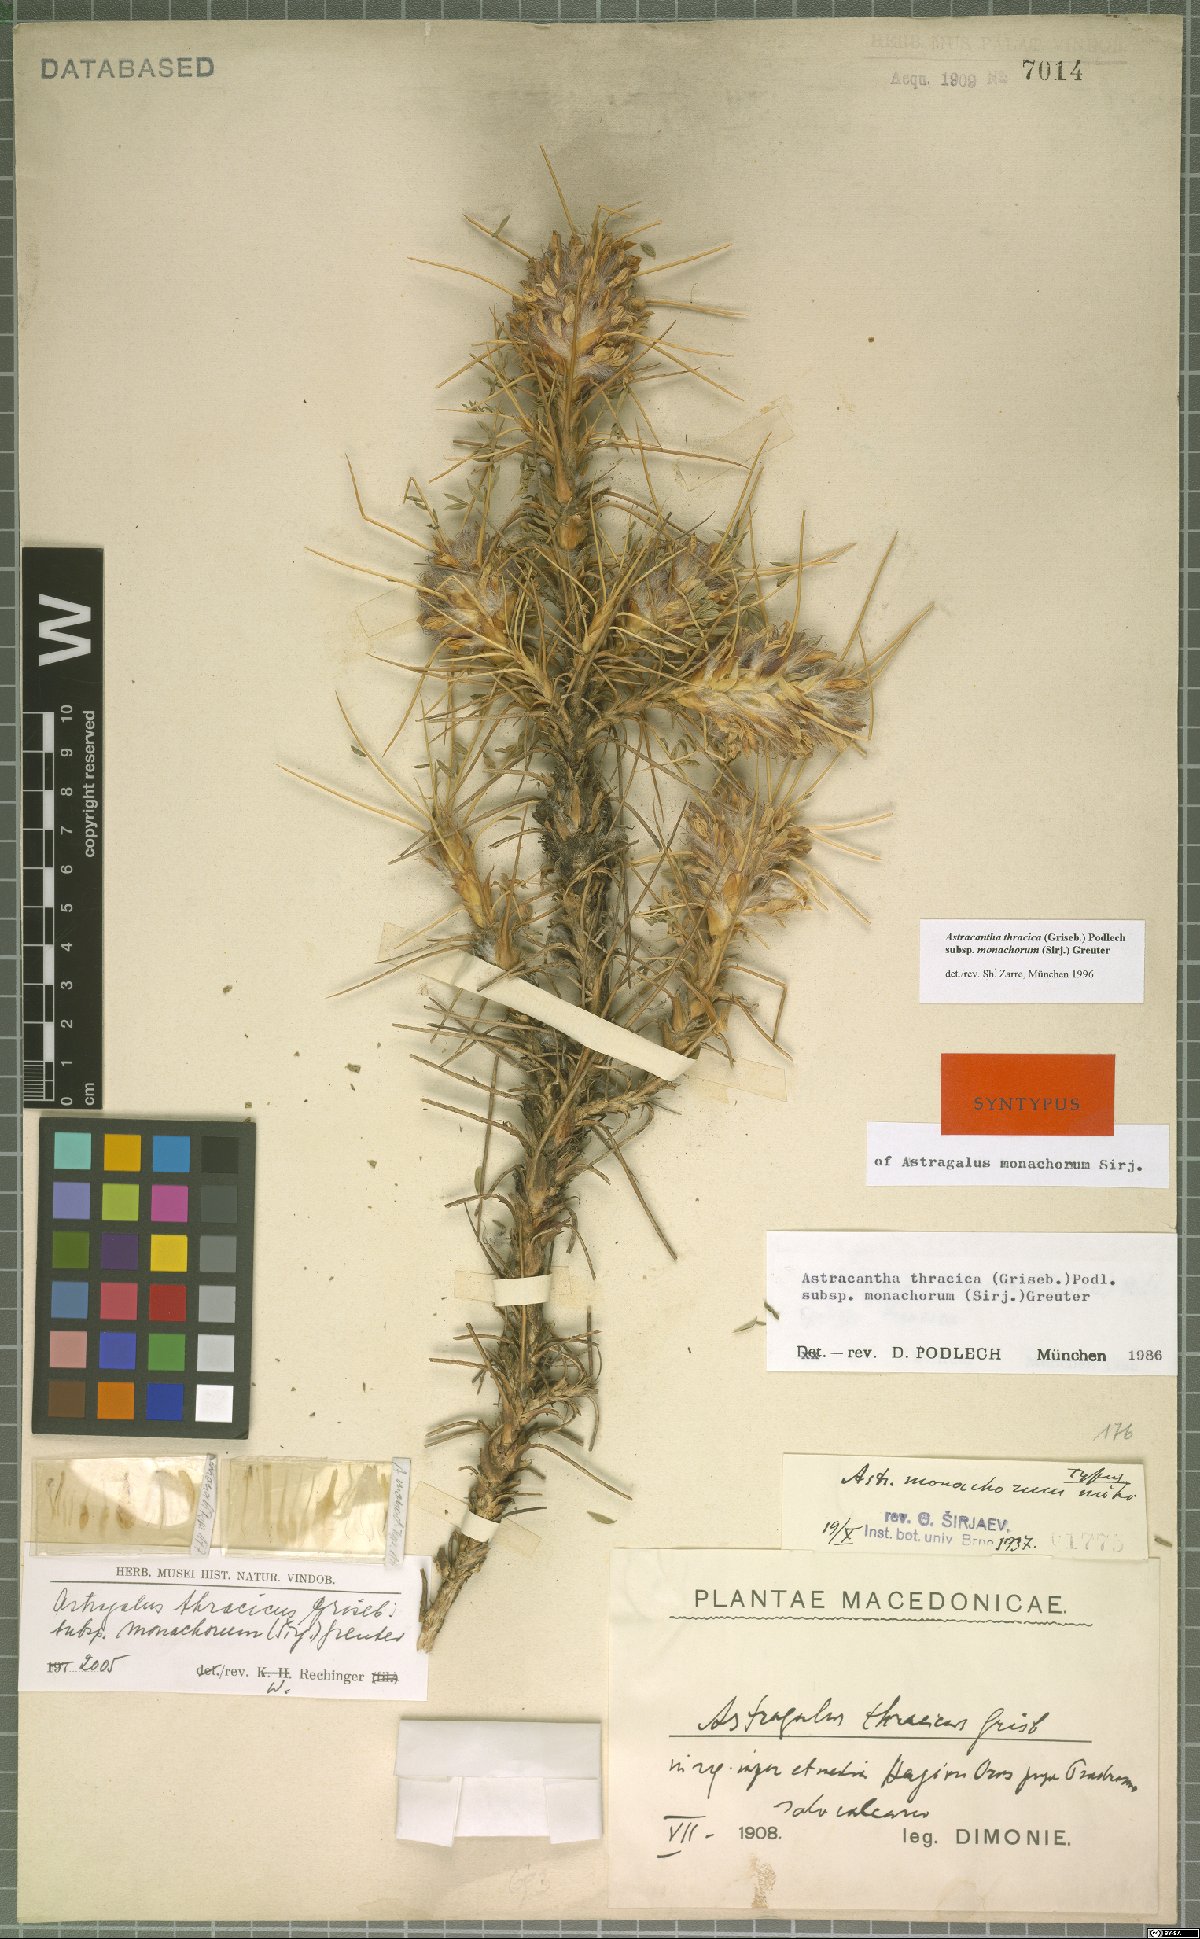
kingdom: Plantae
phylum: Tracheophyta
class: Magnoliopsida
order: Fabales
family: Fabaceae
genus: Astragalus
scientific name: Astragalus thracicus
